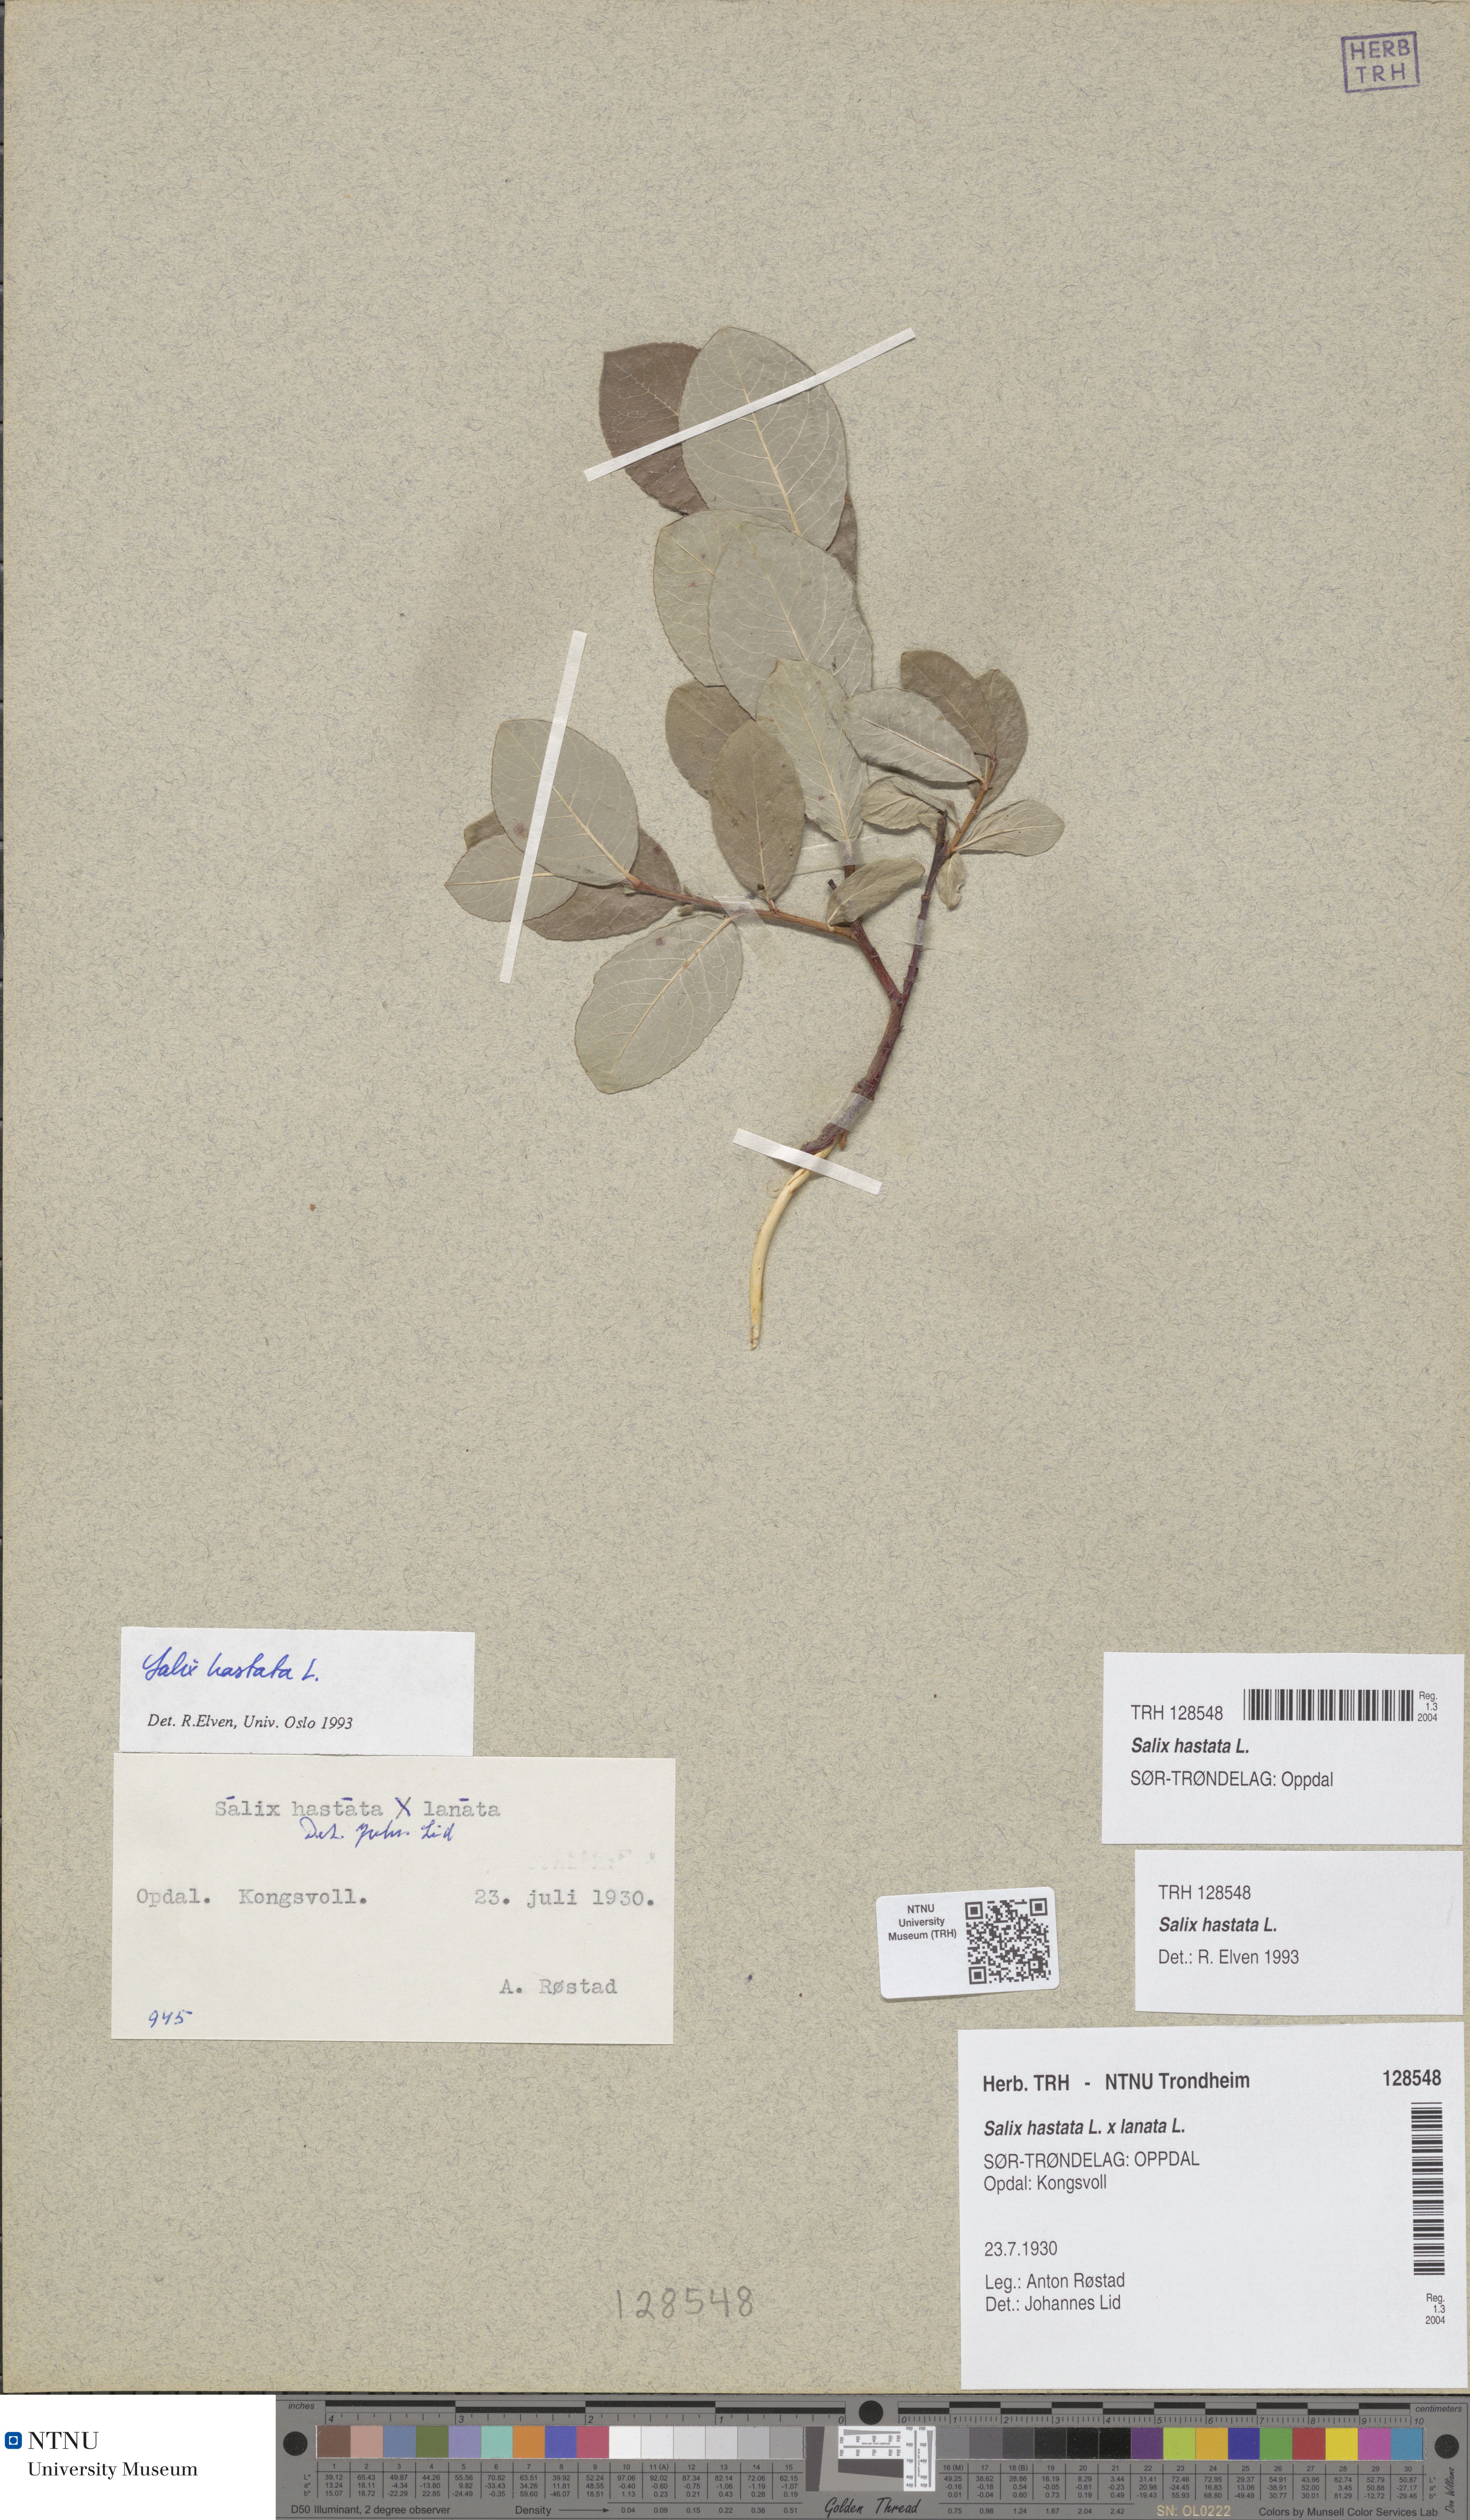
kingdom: Plantae
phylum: Tracheophyta
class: Magnoliopsida
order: Malpighiales
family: Salicaceae
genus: Salix
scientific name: Salix hastata
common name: Halberd willow
